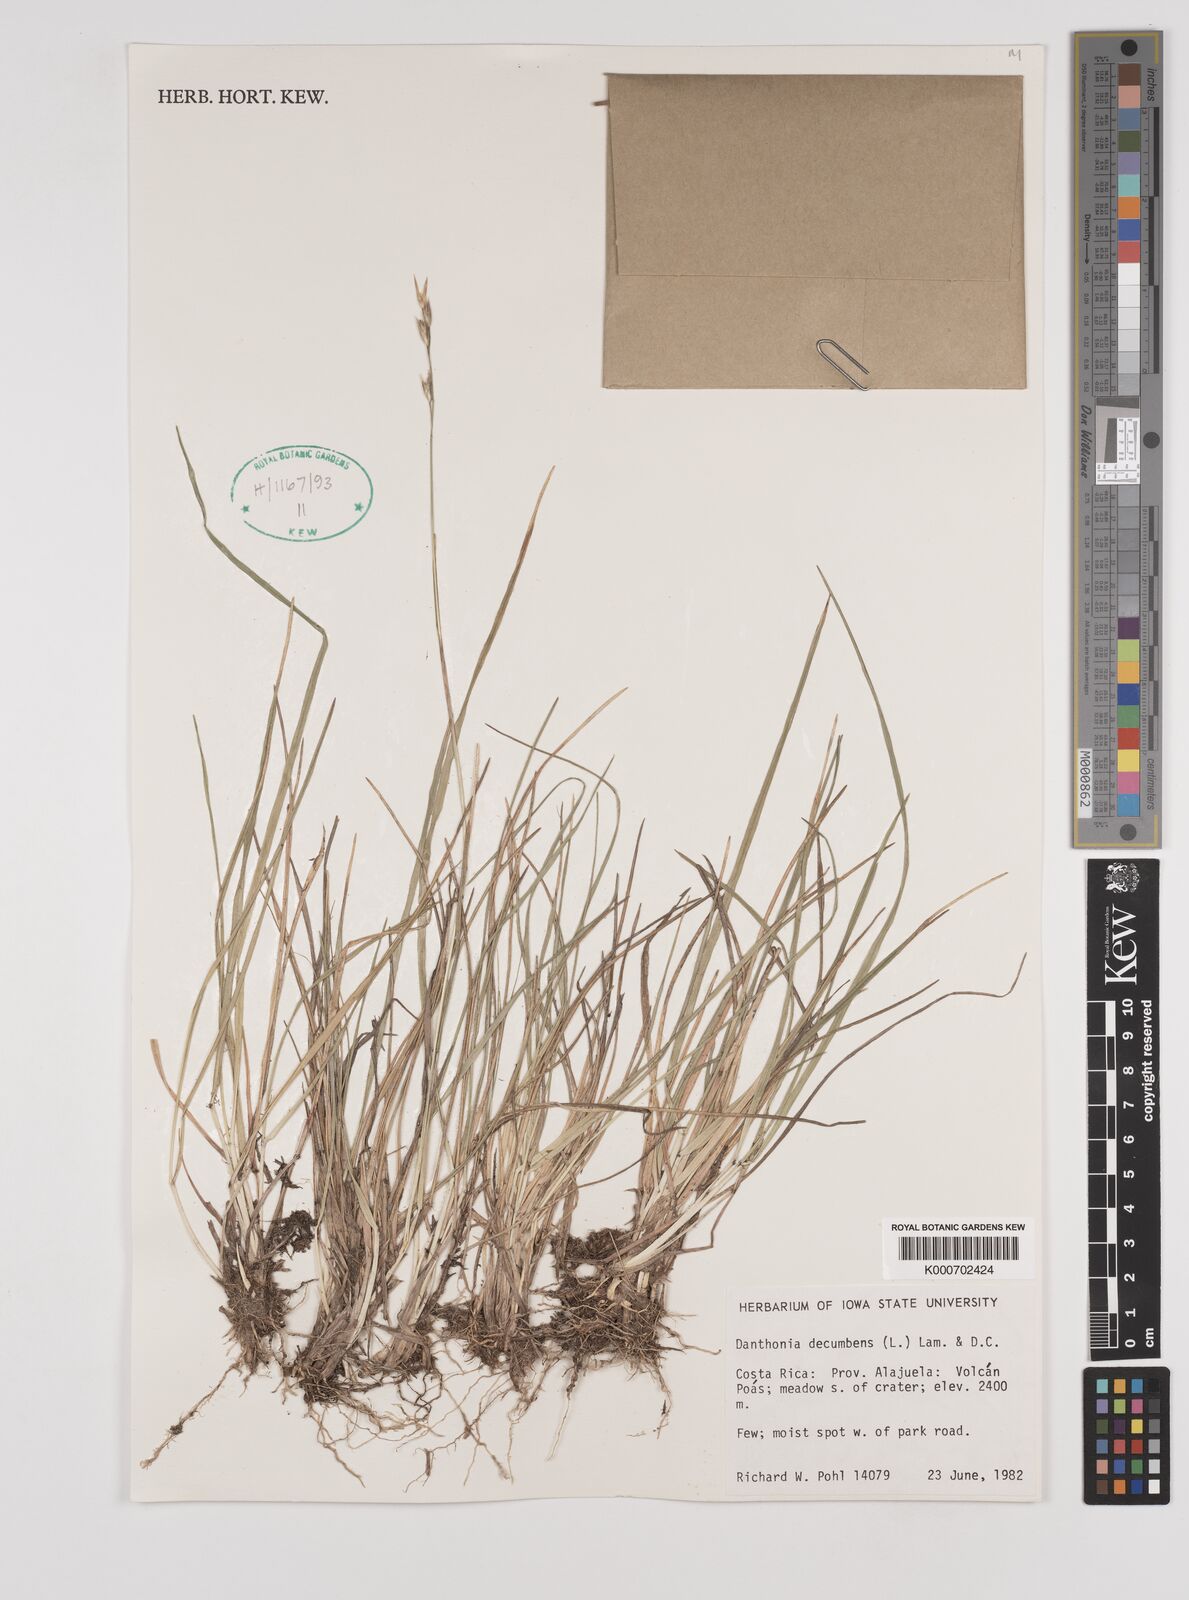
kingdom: Plantae
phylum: Tracheophyta
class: Liliopsida
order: Poales
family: Poaceae
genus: Danthonia
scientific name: Danthonia decumbens
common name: Common heathgrass
